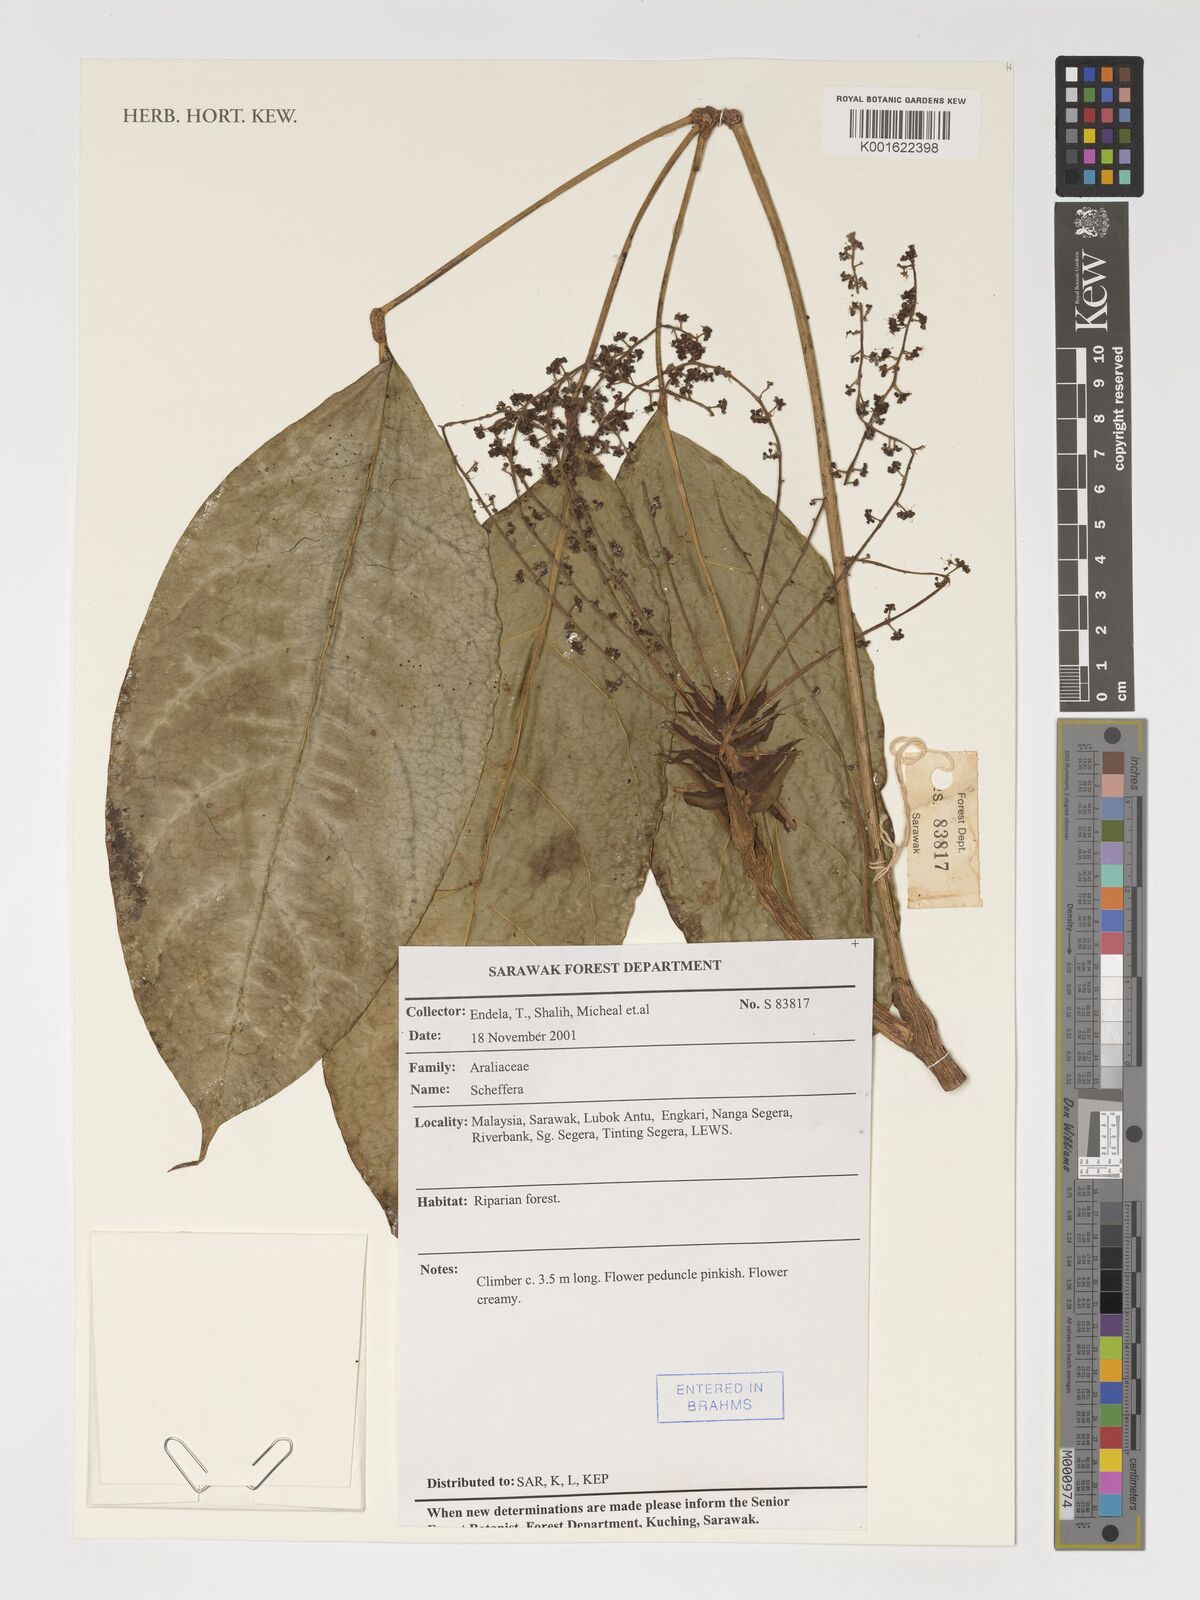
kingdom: Plantae
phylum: Tracheophyta
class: Magnoliopsida
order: Apiales
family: Araliaceae
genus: Schefflera
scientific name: Schefflera
